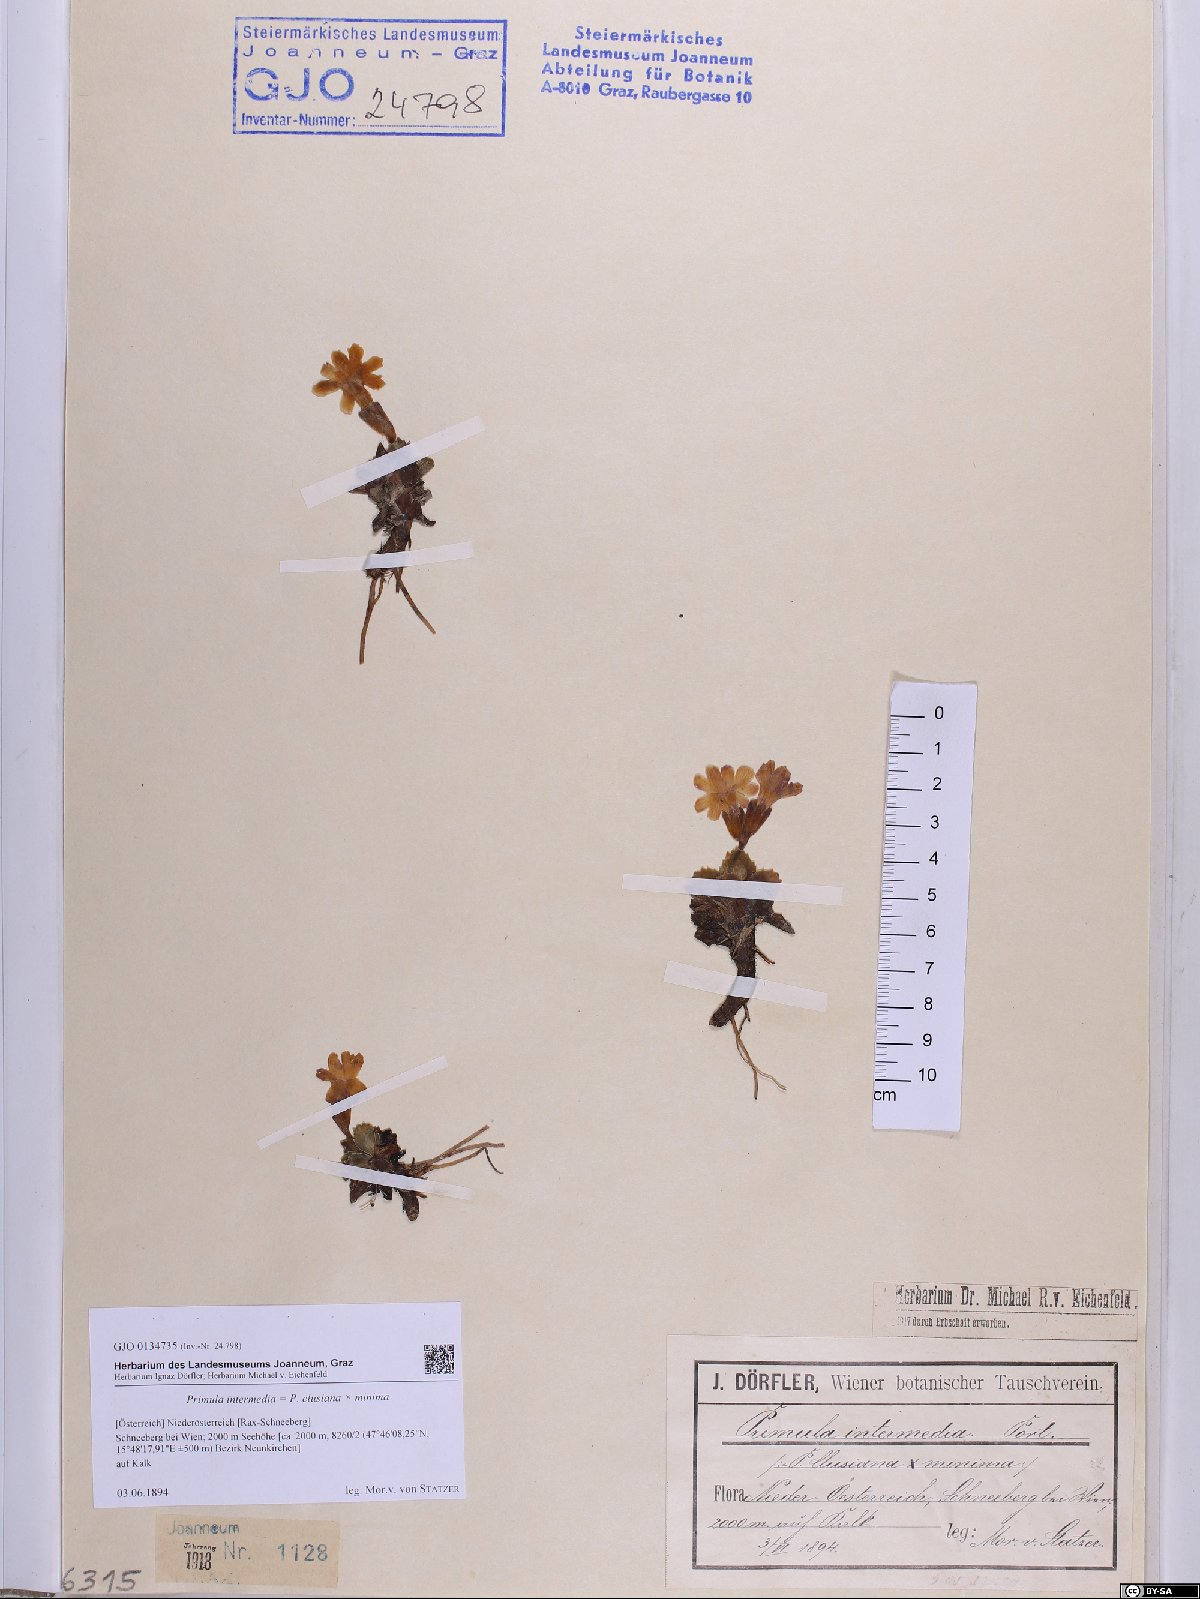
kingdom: Plantae
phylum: Tracheophyta
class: Magnoliopsida
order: Ericales
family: Primulaceae
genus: Primula
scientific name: Primula wettsteinii
